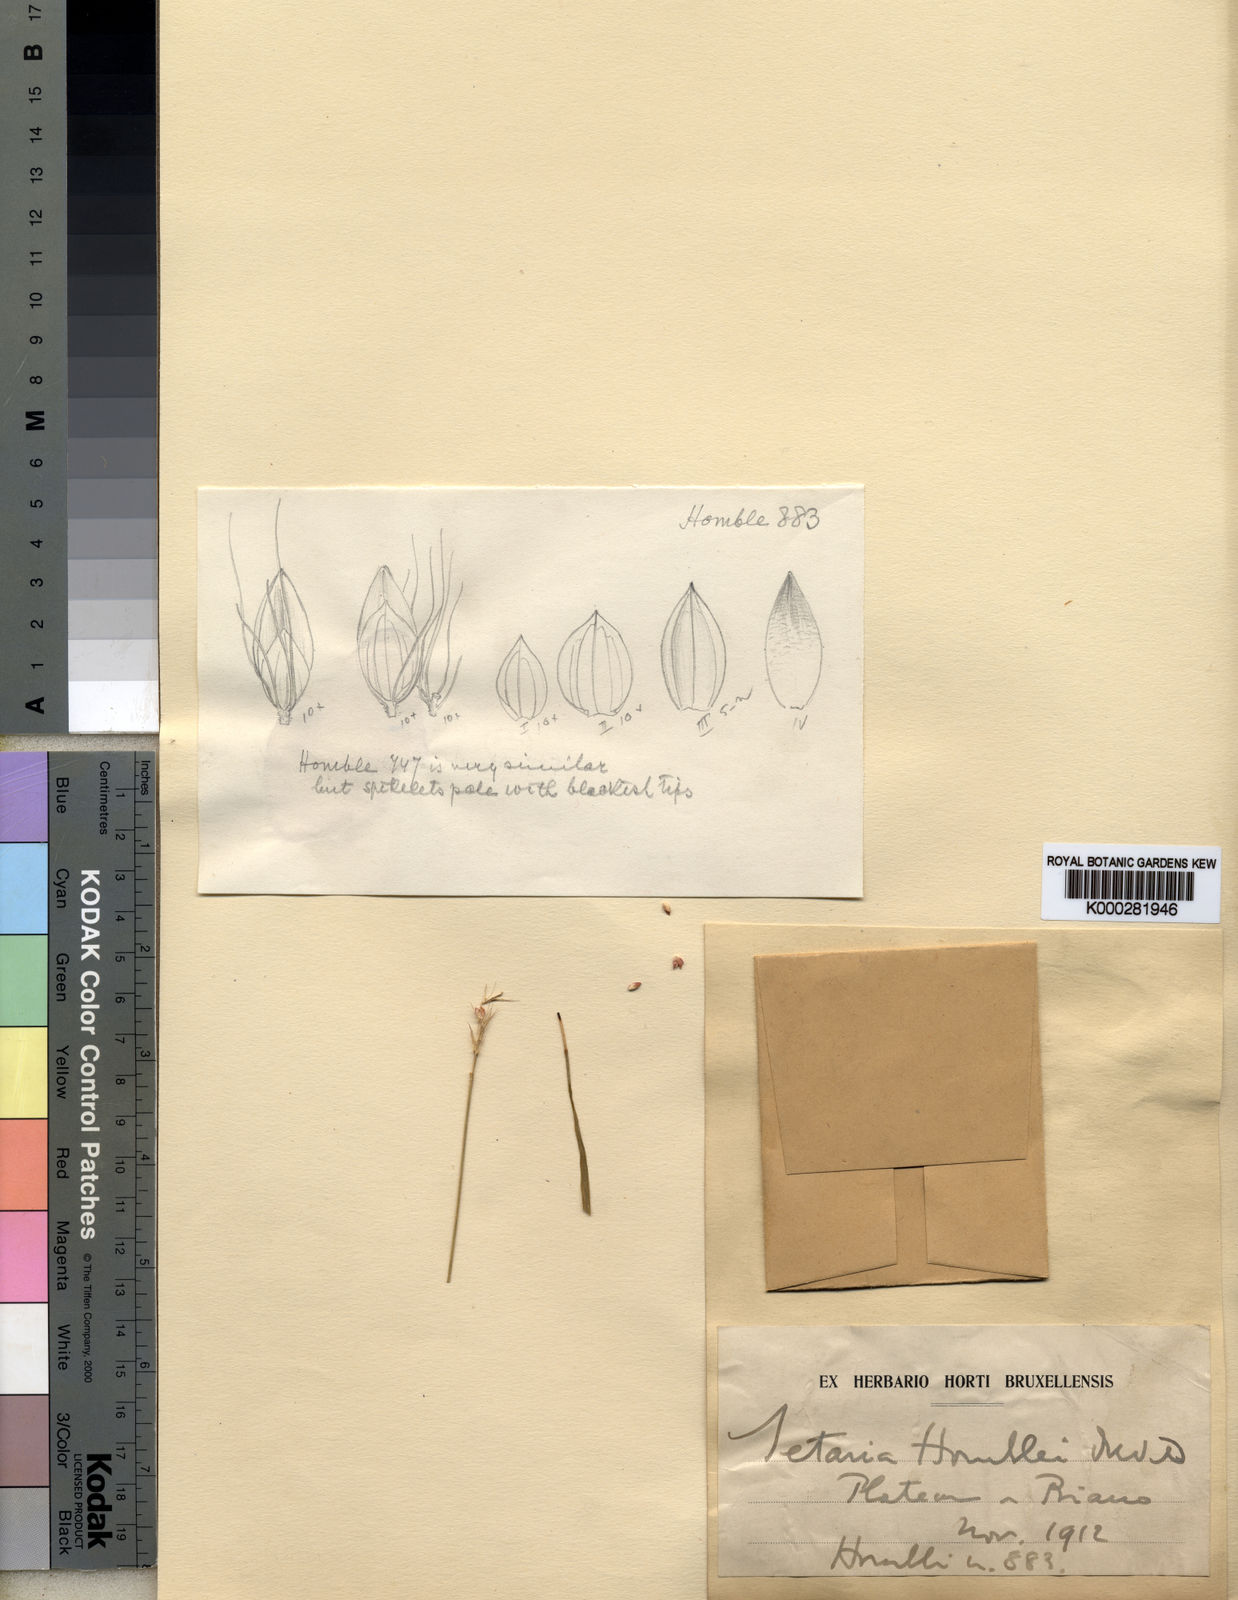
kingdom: Plantae
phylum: Tracheophyta
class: Liliopsida
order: Poales
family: Poaceae
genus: Setaria
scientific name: Setaria sphacelata
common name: African bristlegrass
